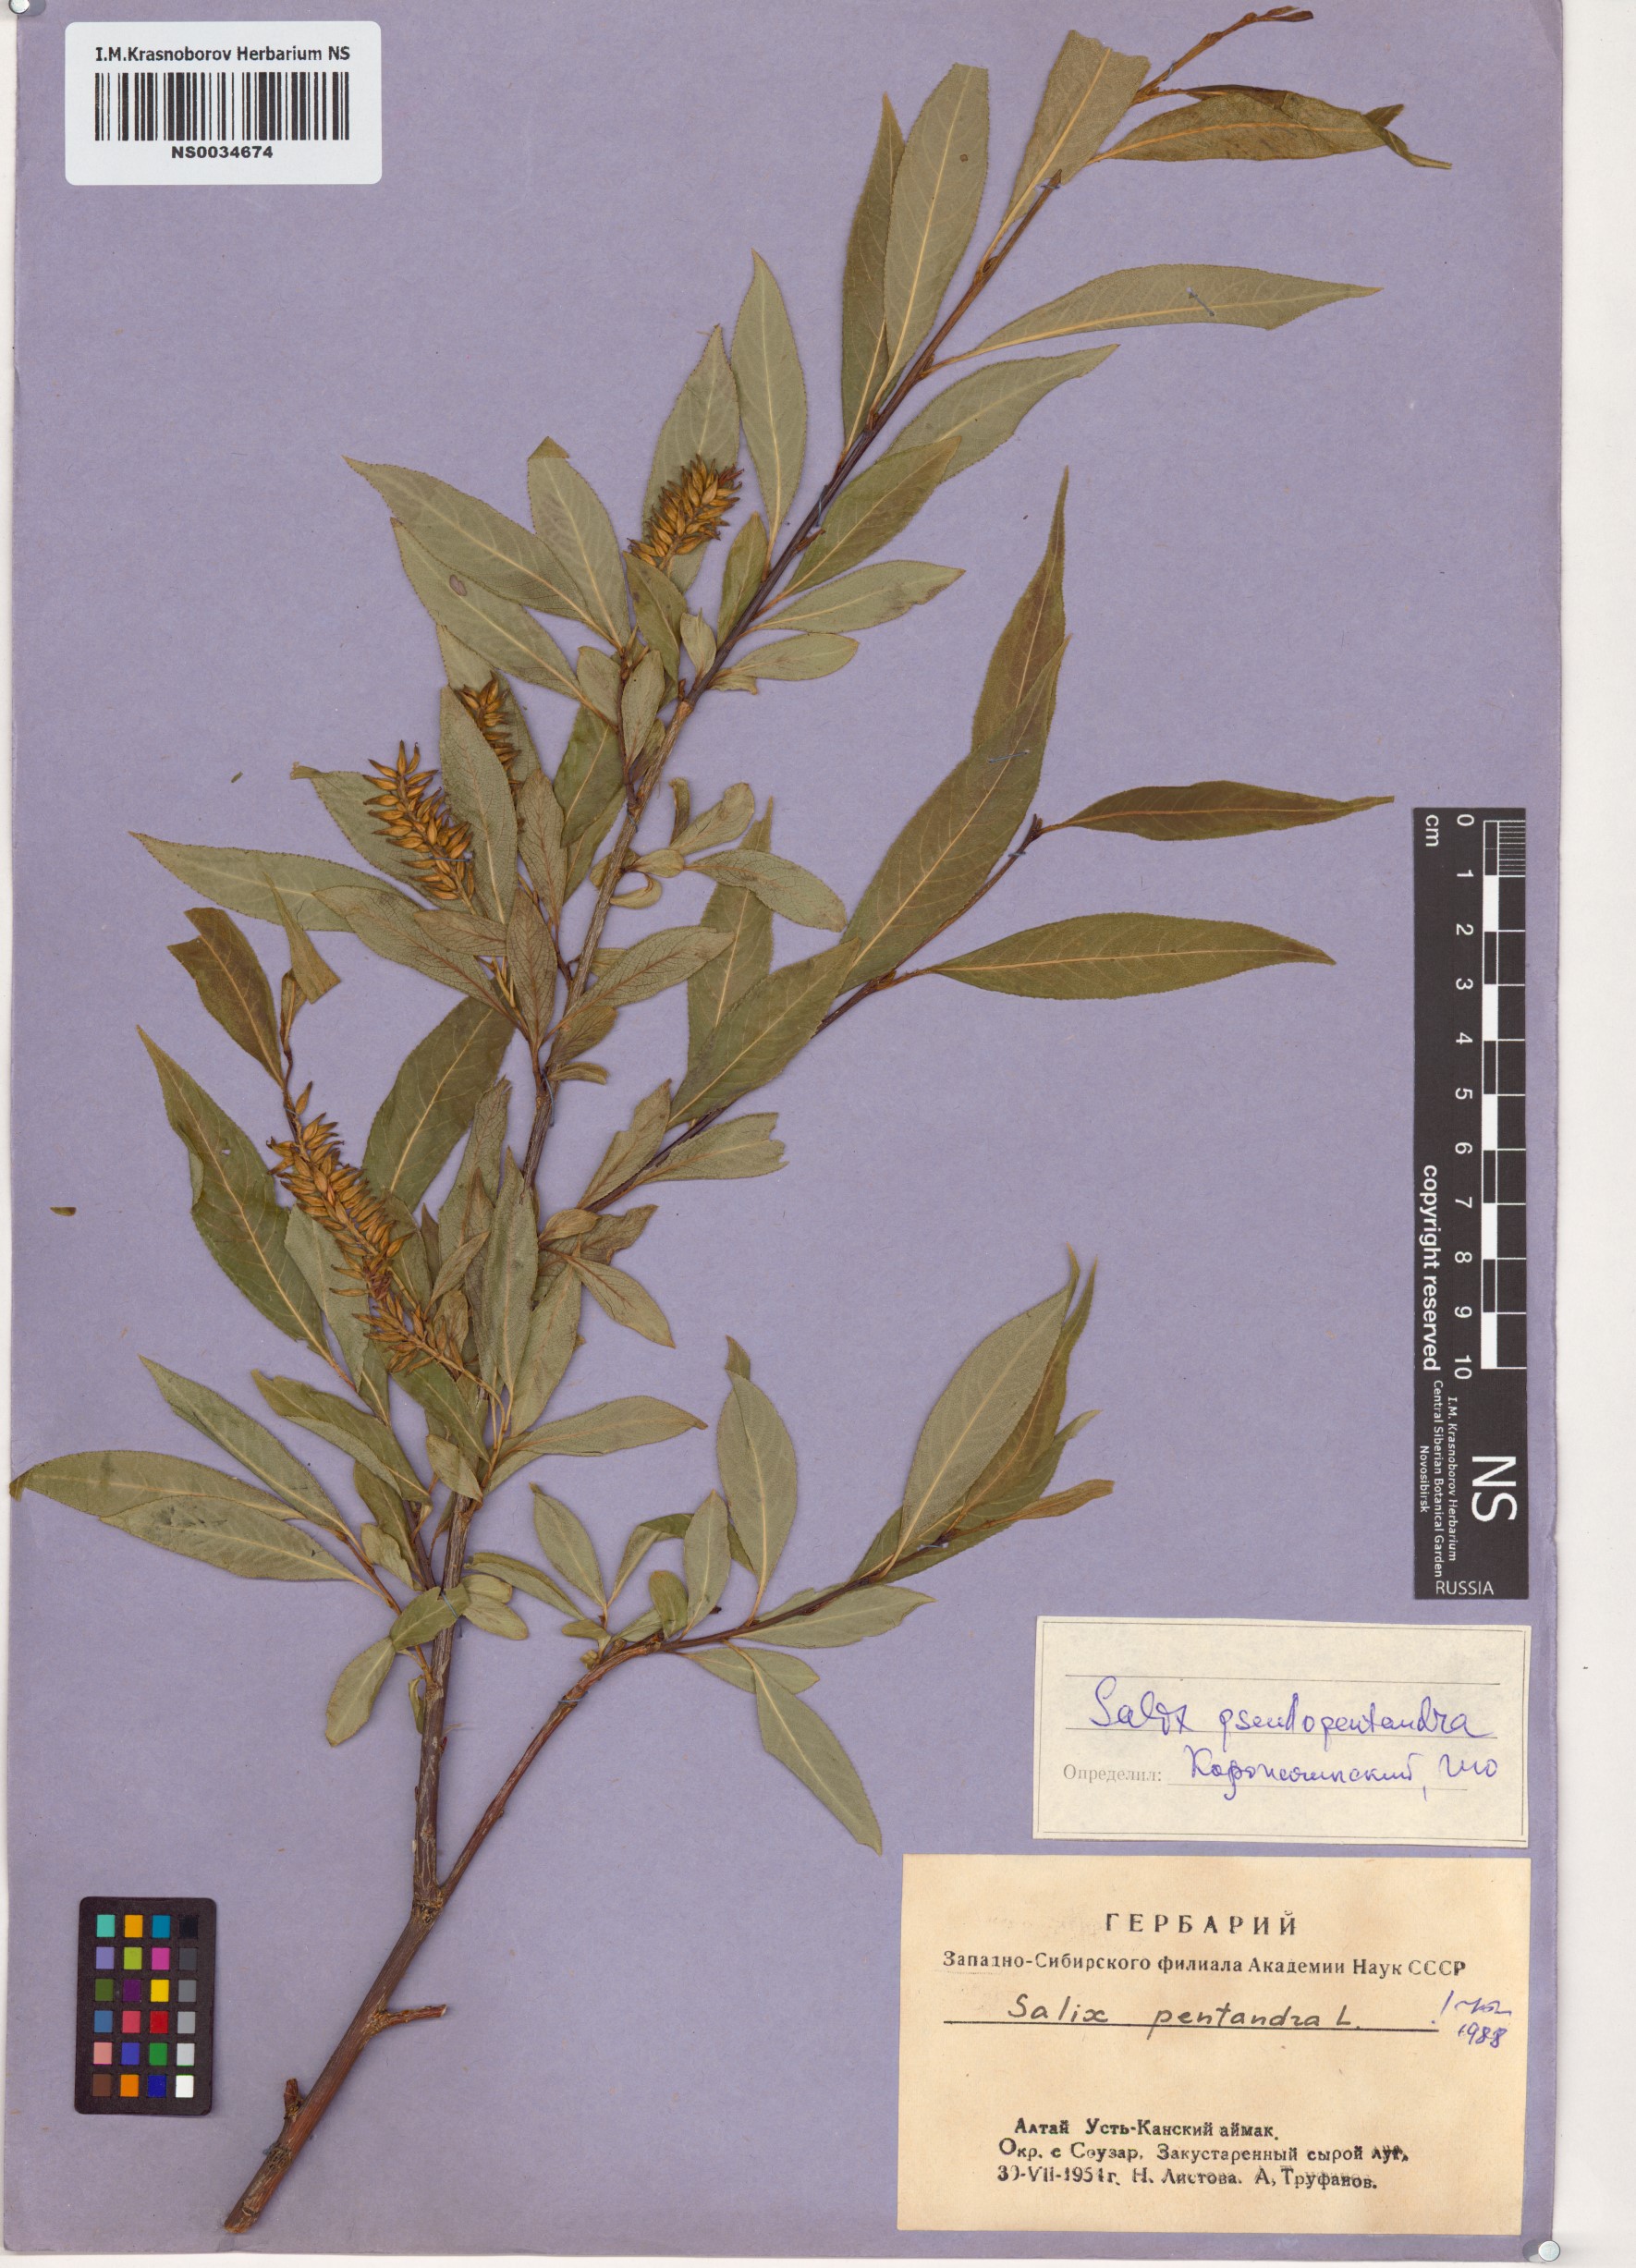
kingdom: Plantae
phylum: Tracheophyta
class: Magnoliopsida
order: Malpighiales
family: Salicaceae
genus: Salix
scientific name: Salix pentandra
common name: Bay willow
